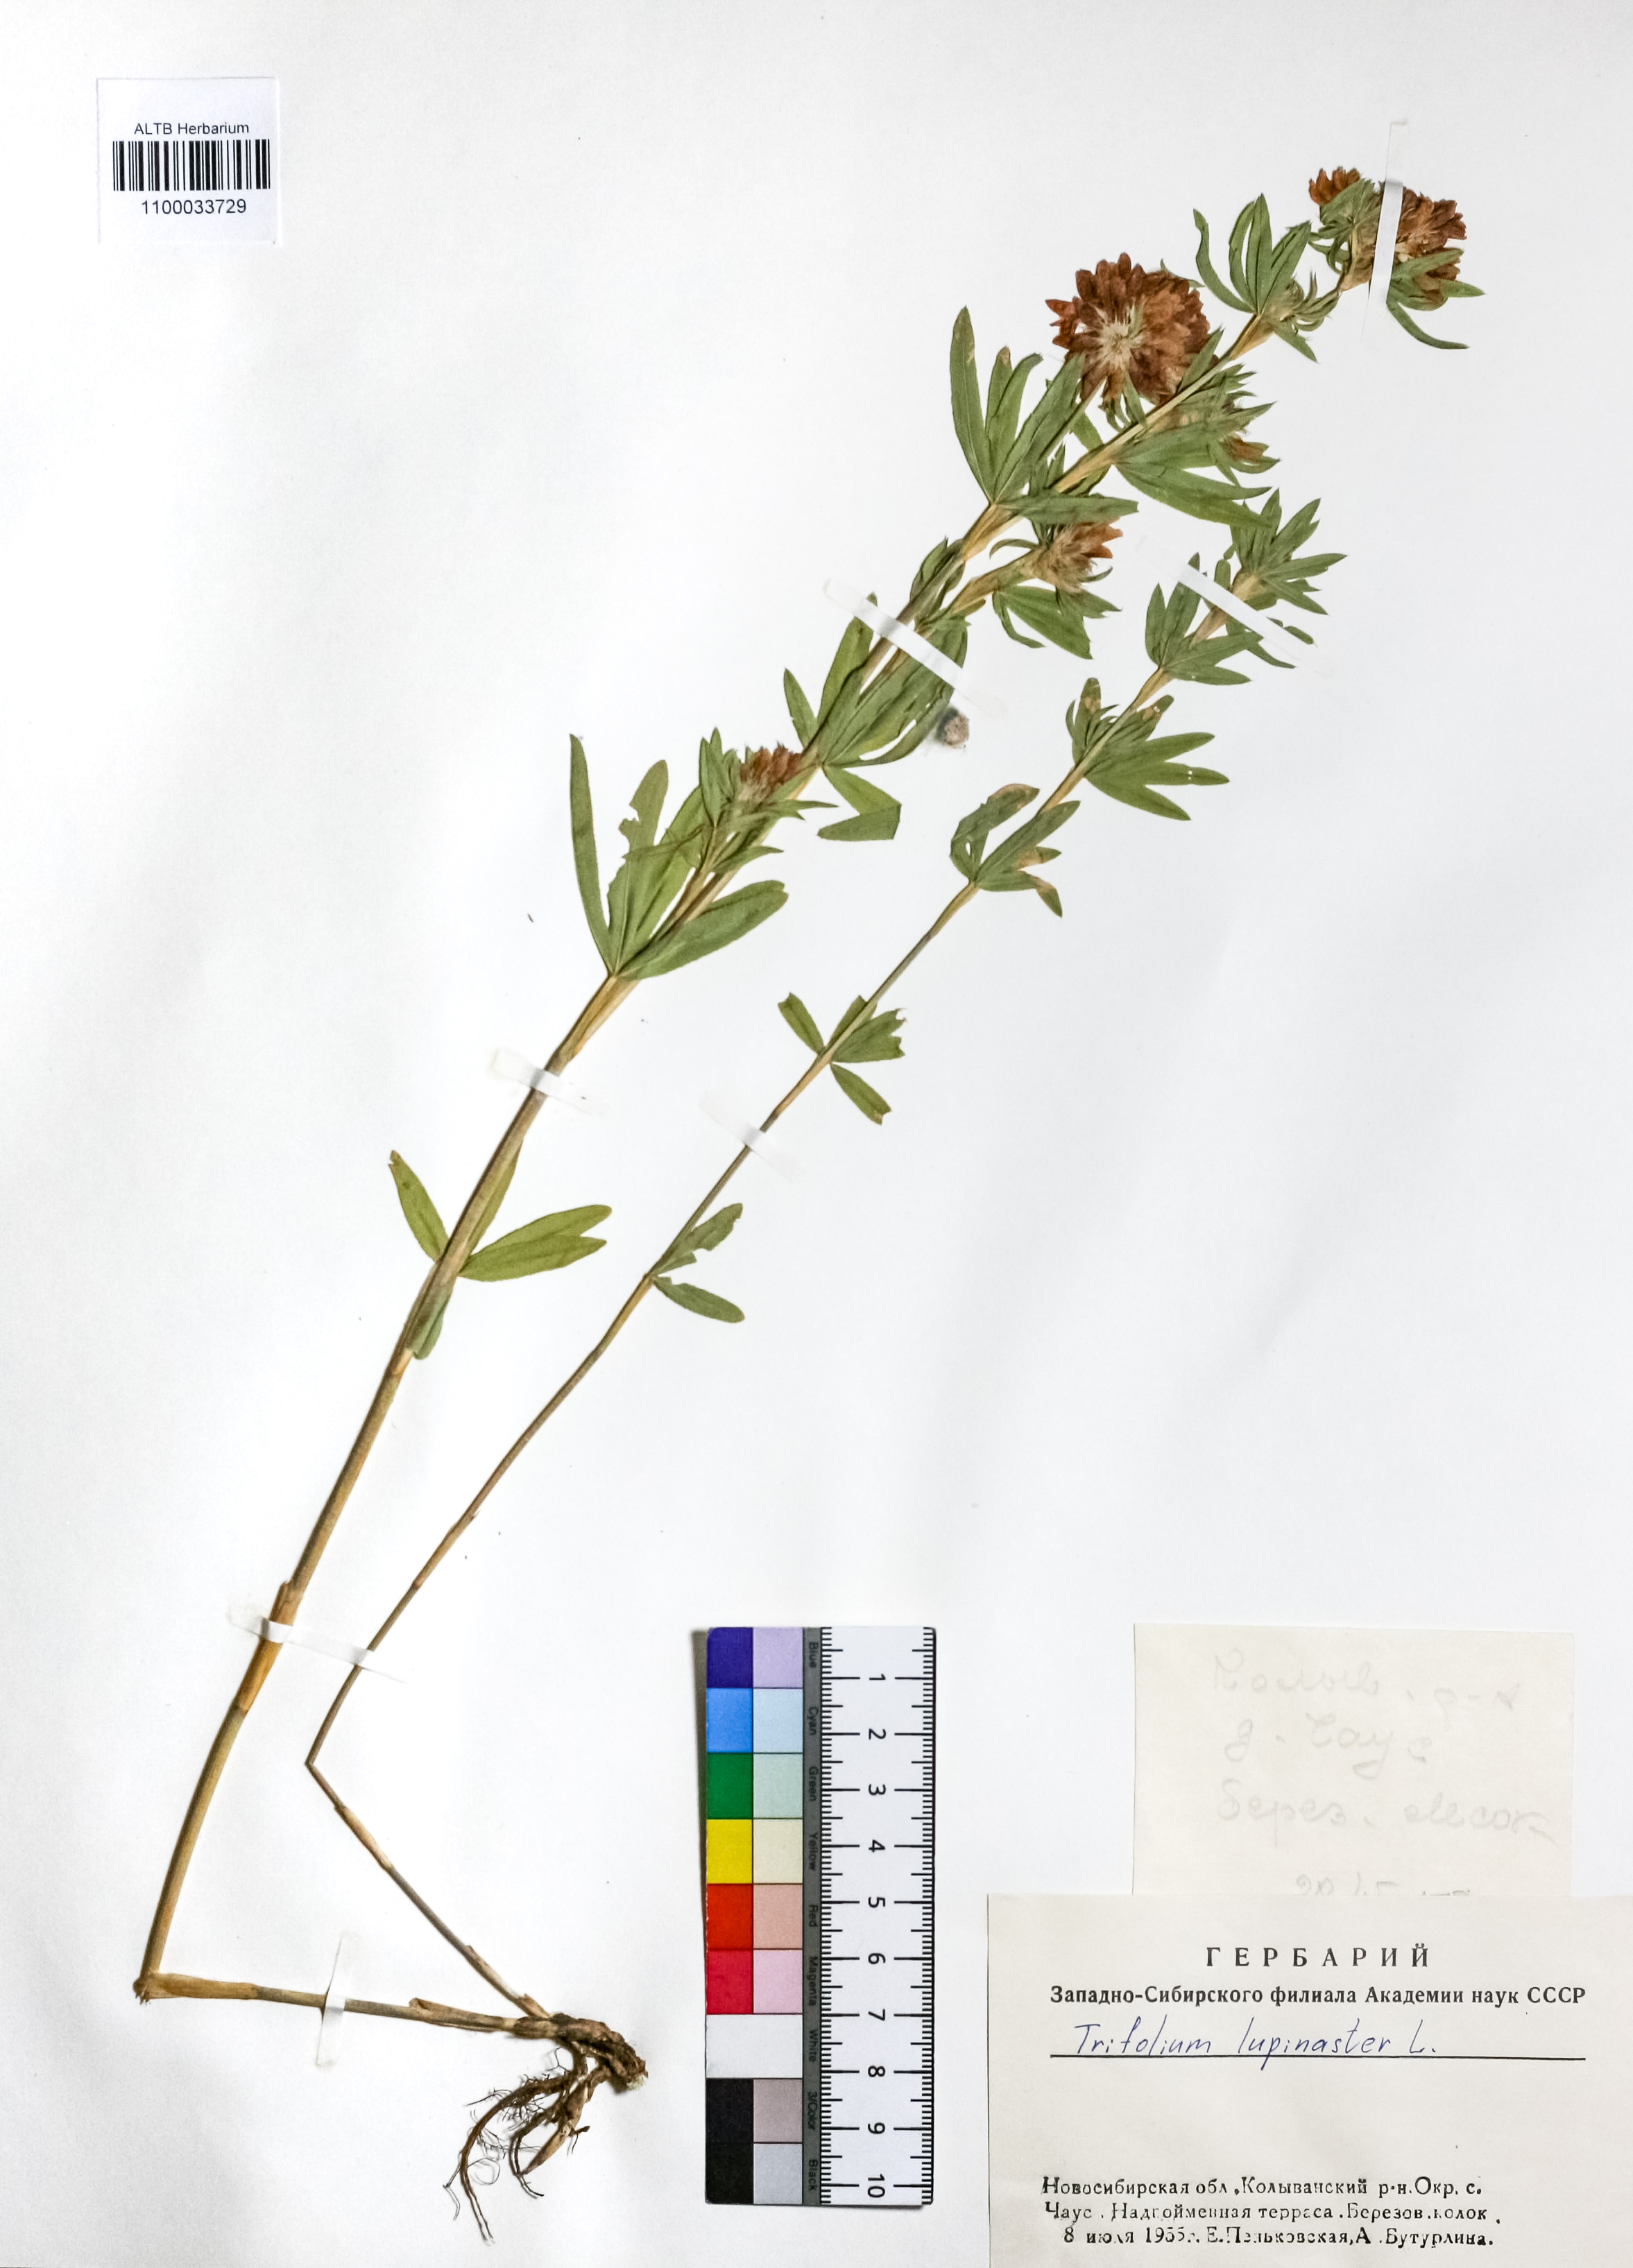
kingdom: Plantae
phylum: Tracheophyta
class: Magnoliopsida
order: Fabales
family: Fabaceae
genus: Trifolium
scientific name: Trifolium lupinaster
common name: Lupine clover
